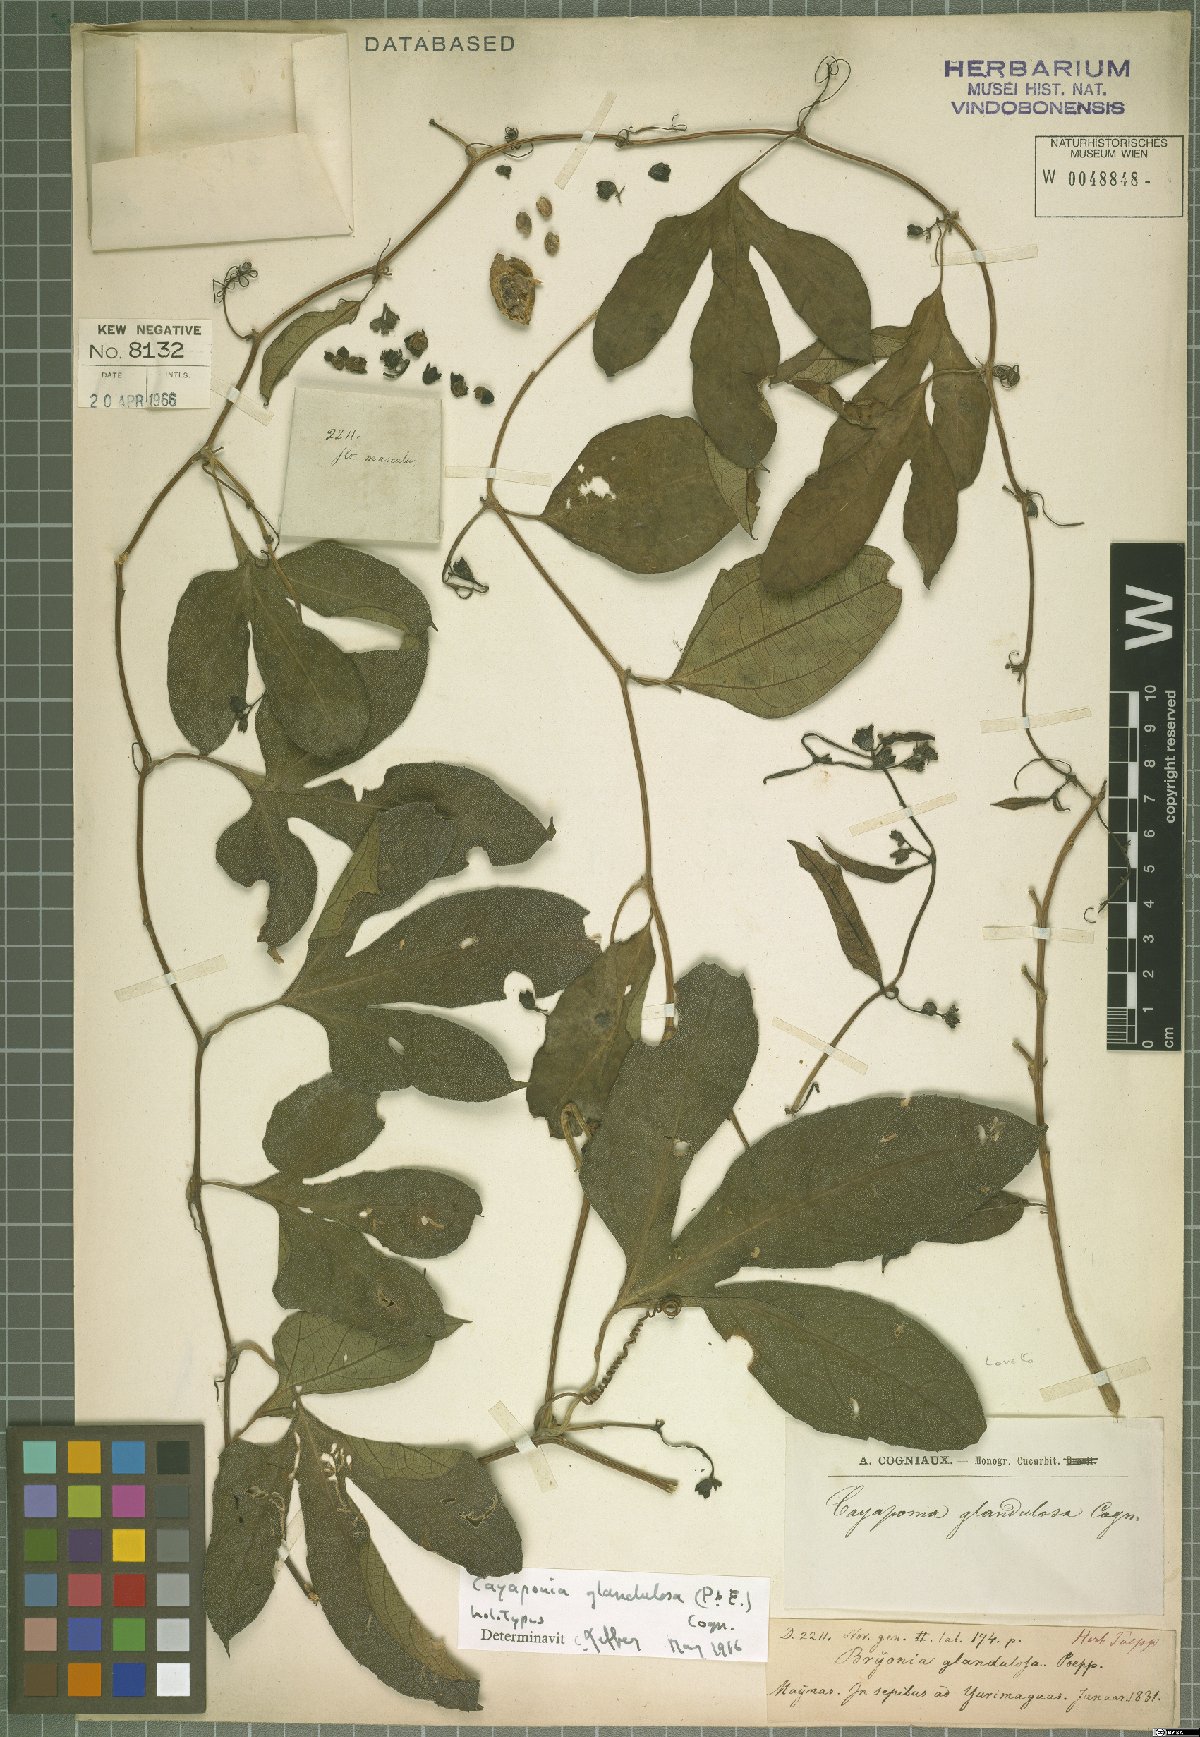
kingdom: Plantae
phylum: Tracheophyta
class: Magnoliopsida
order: Cucurbitales
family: Cucurbitaceae
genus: Cayaponia
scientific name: Cayaponia glandulosa
